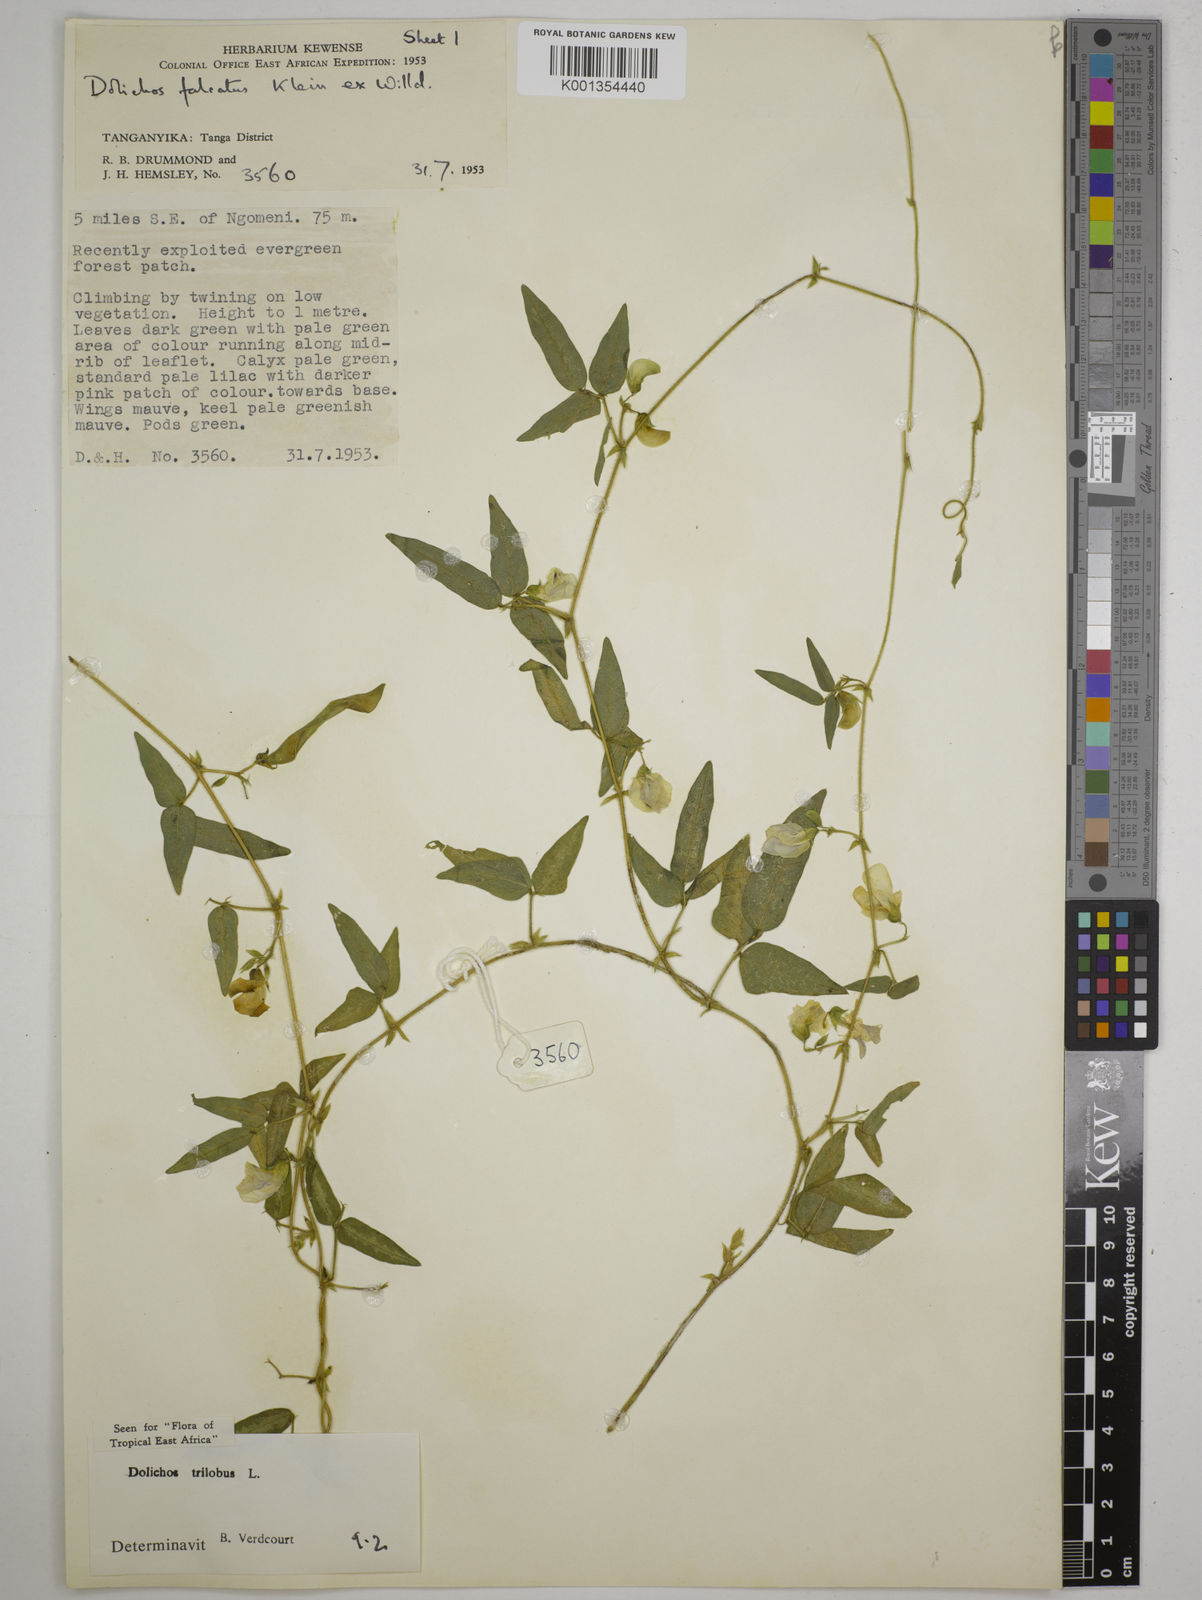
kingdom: Plantae
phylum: Tracheophyta
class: Magnoliopsida
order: Fabales
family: Fabaceae
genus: Dolichos
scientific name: Dolichos
